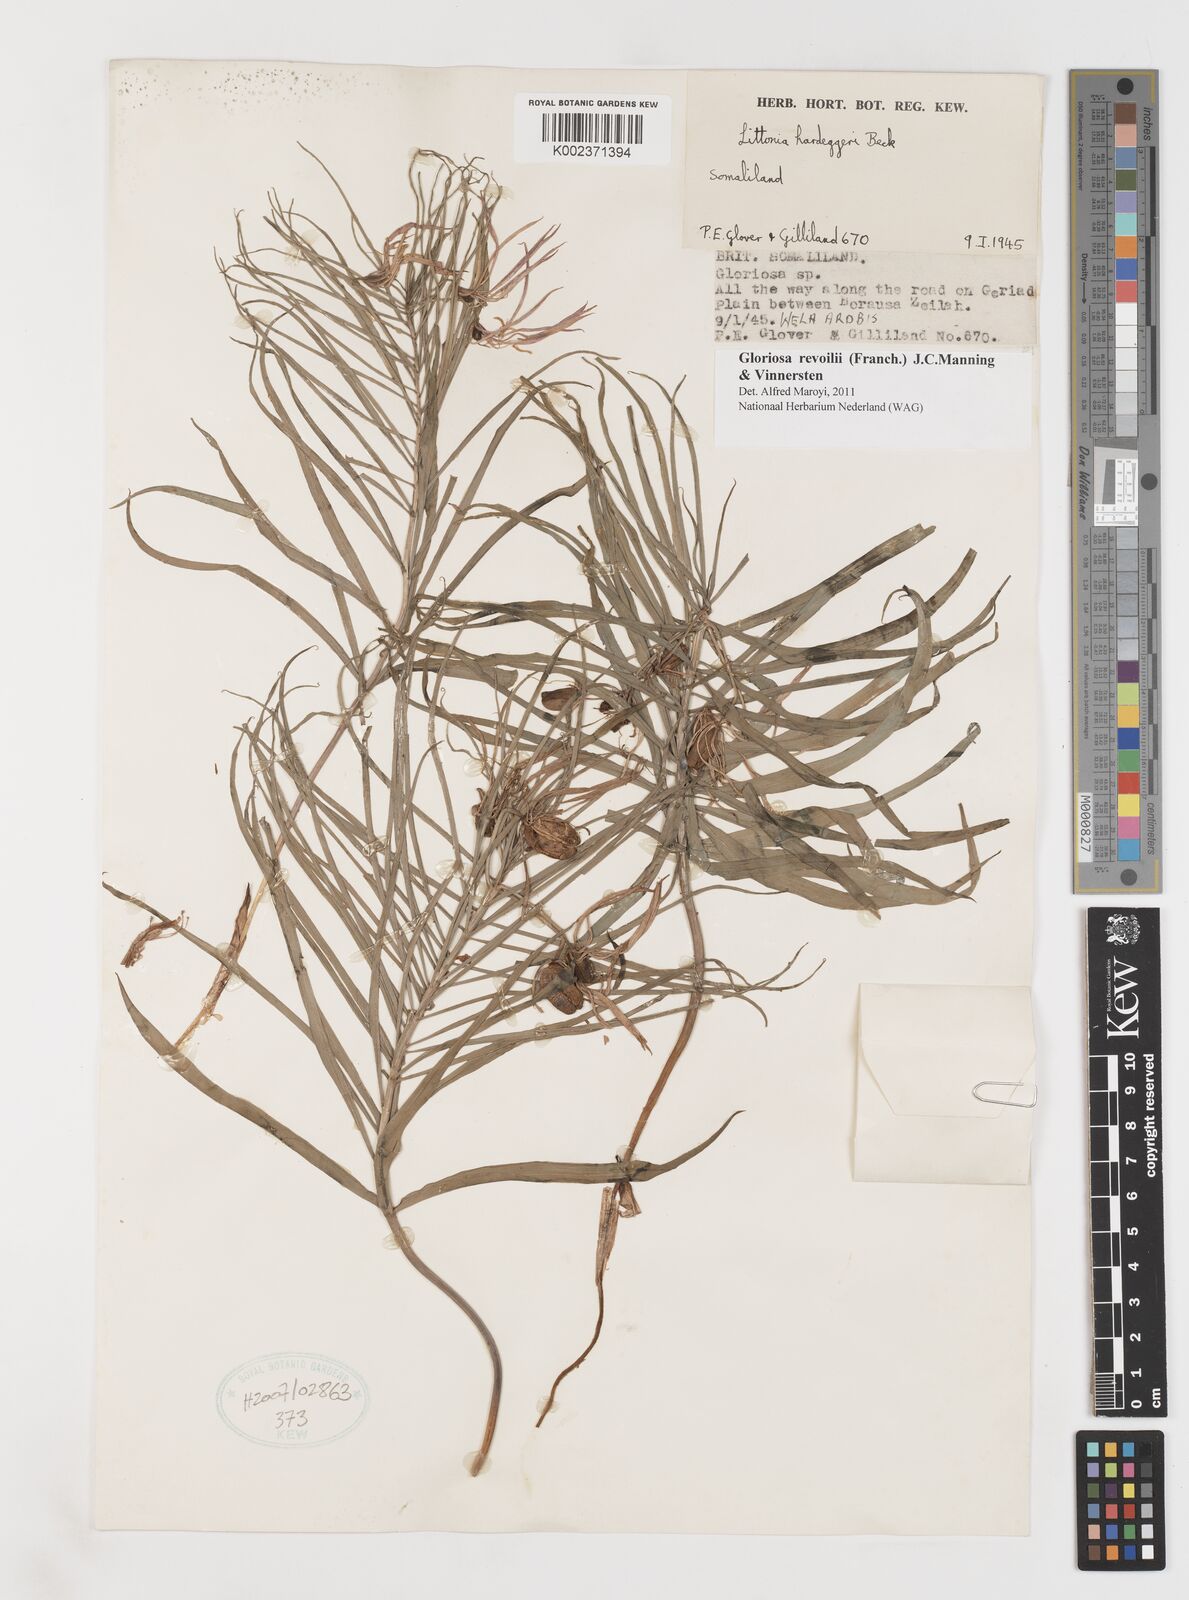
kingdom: Plantae
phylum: Tracheophyta
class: Liliopsida
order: Liliales
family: Colchicaceae
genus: Gloriosa
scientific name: Gloriosa revoilii
